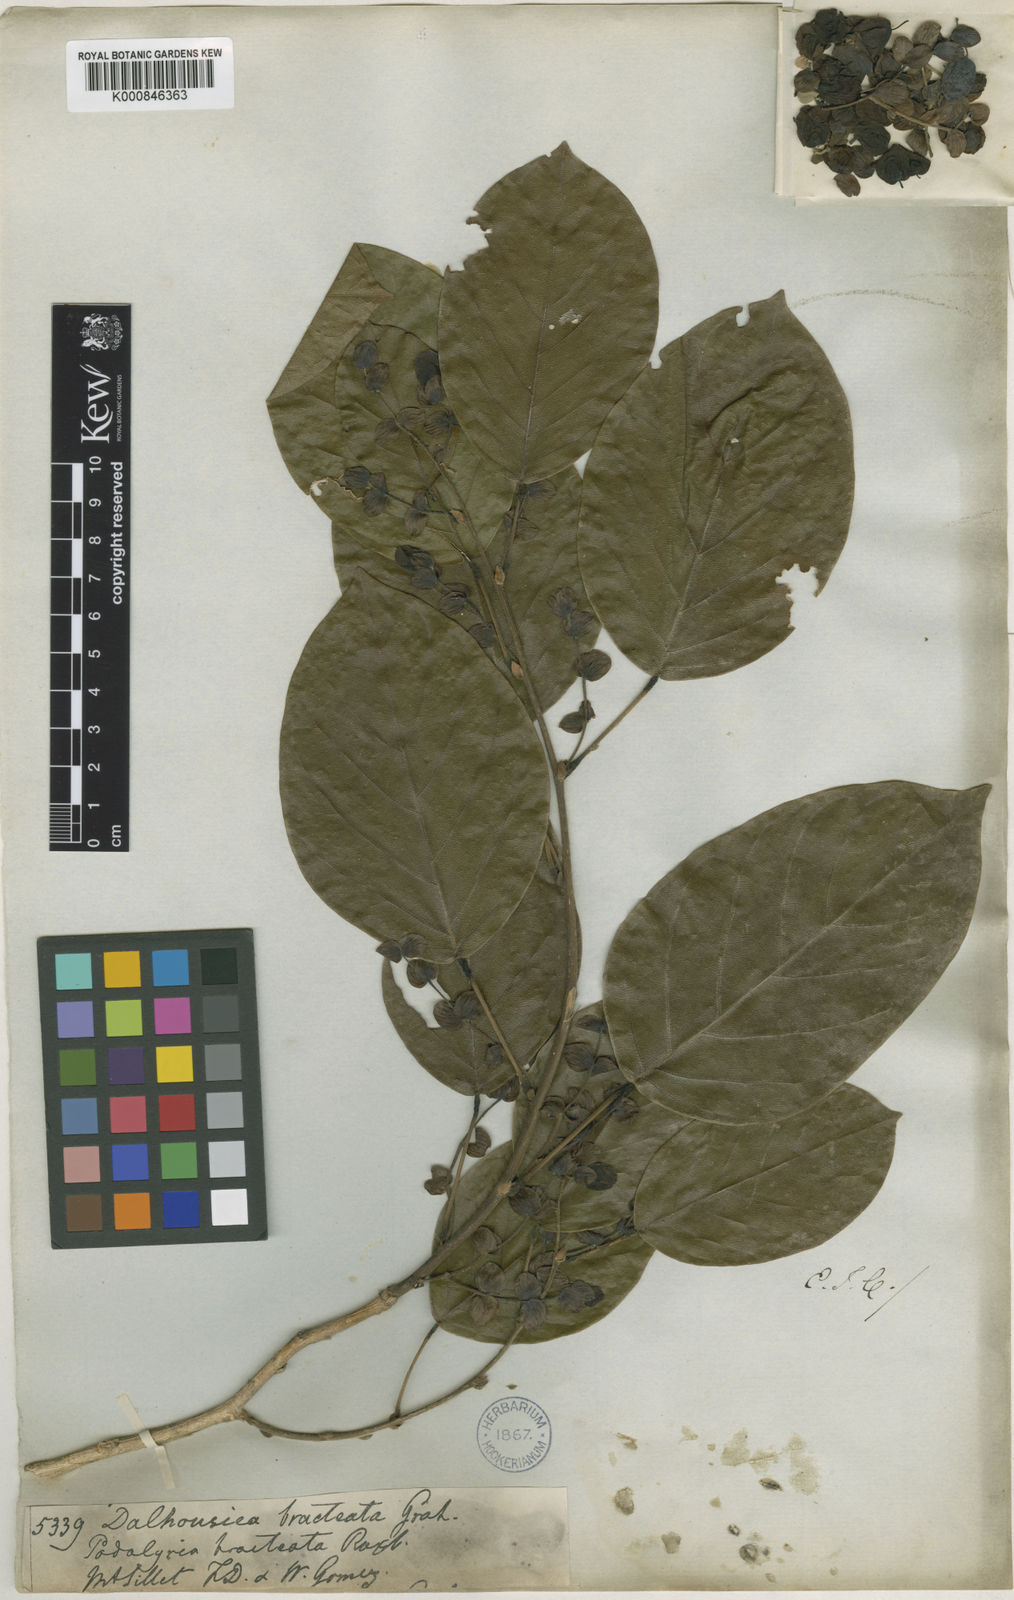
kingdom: Plantae
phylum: Tracheophyta
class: Magnoliopsida
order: Fabales
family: Fabaceae
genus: Dalhousiea
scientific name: Dalhousiea bracteata
